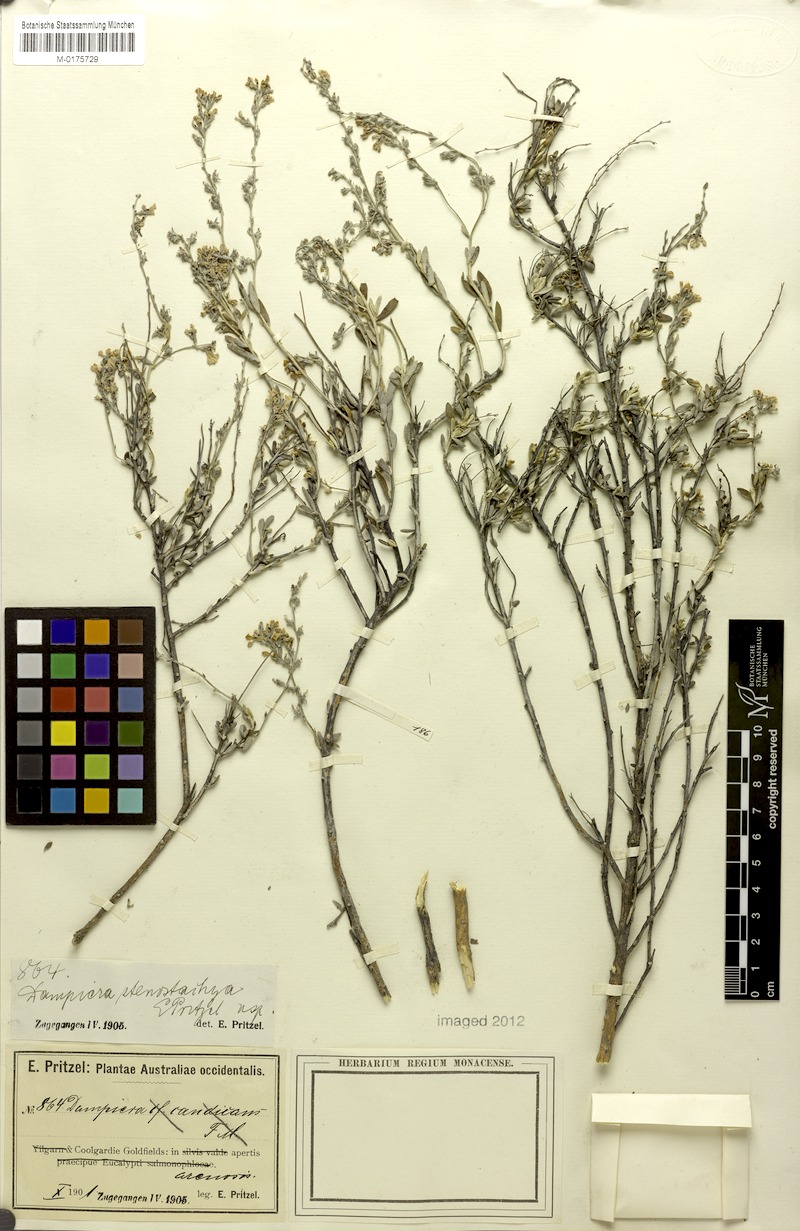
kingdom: Plantae
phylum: Tracheophyta
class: Magnoliopsida
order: Asterales
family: Goodeniaceae
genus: Dampiera
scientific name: Dampiera stenostachya
